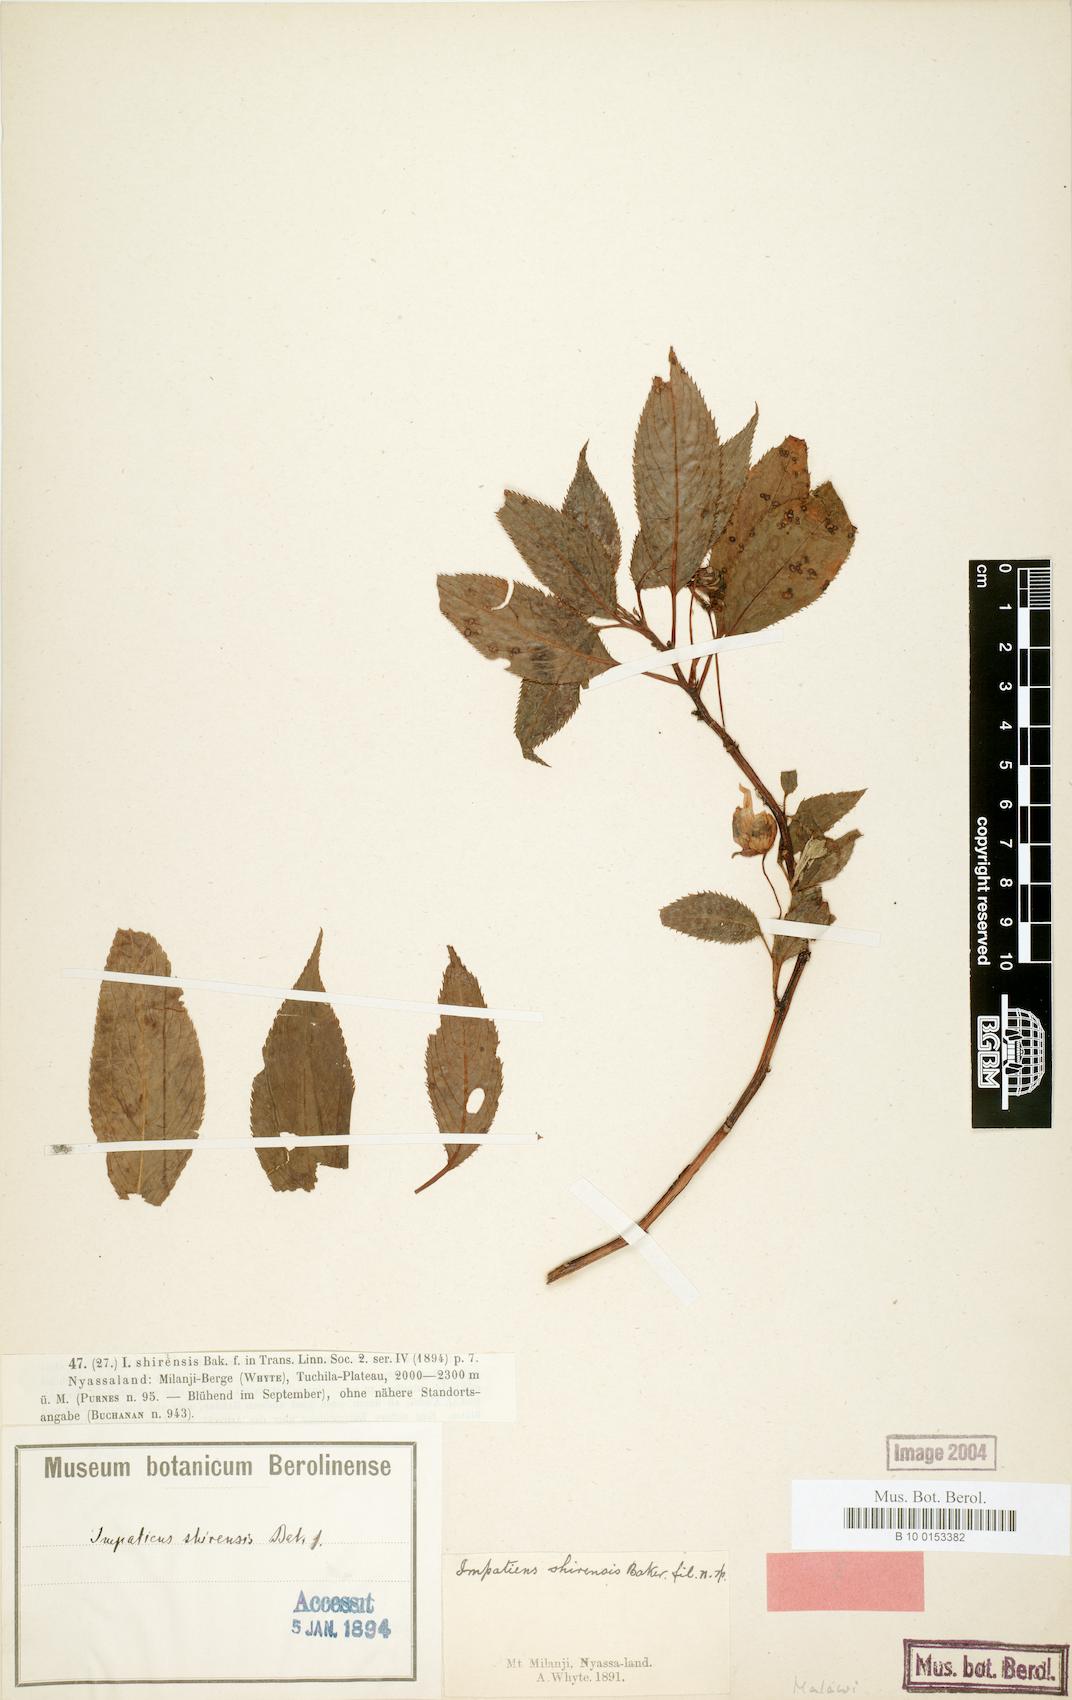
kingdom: Plantae
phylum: Tracheophyta
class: Magnoliopsida
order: Ericales
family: Balsaminaceae
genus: Impatiens
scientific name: Impatiens shirensis
